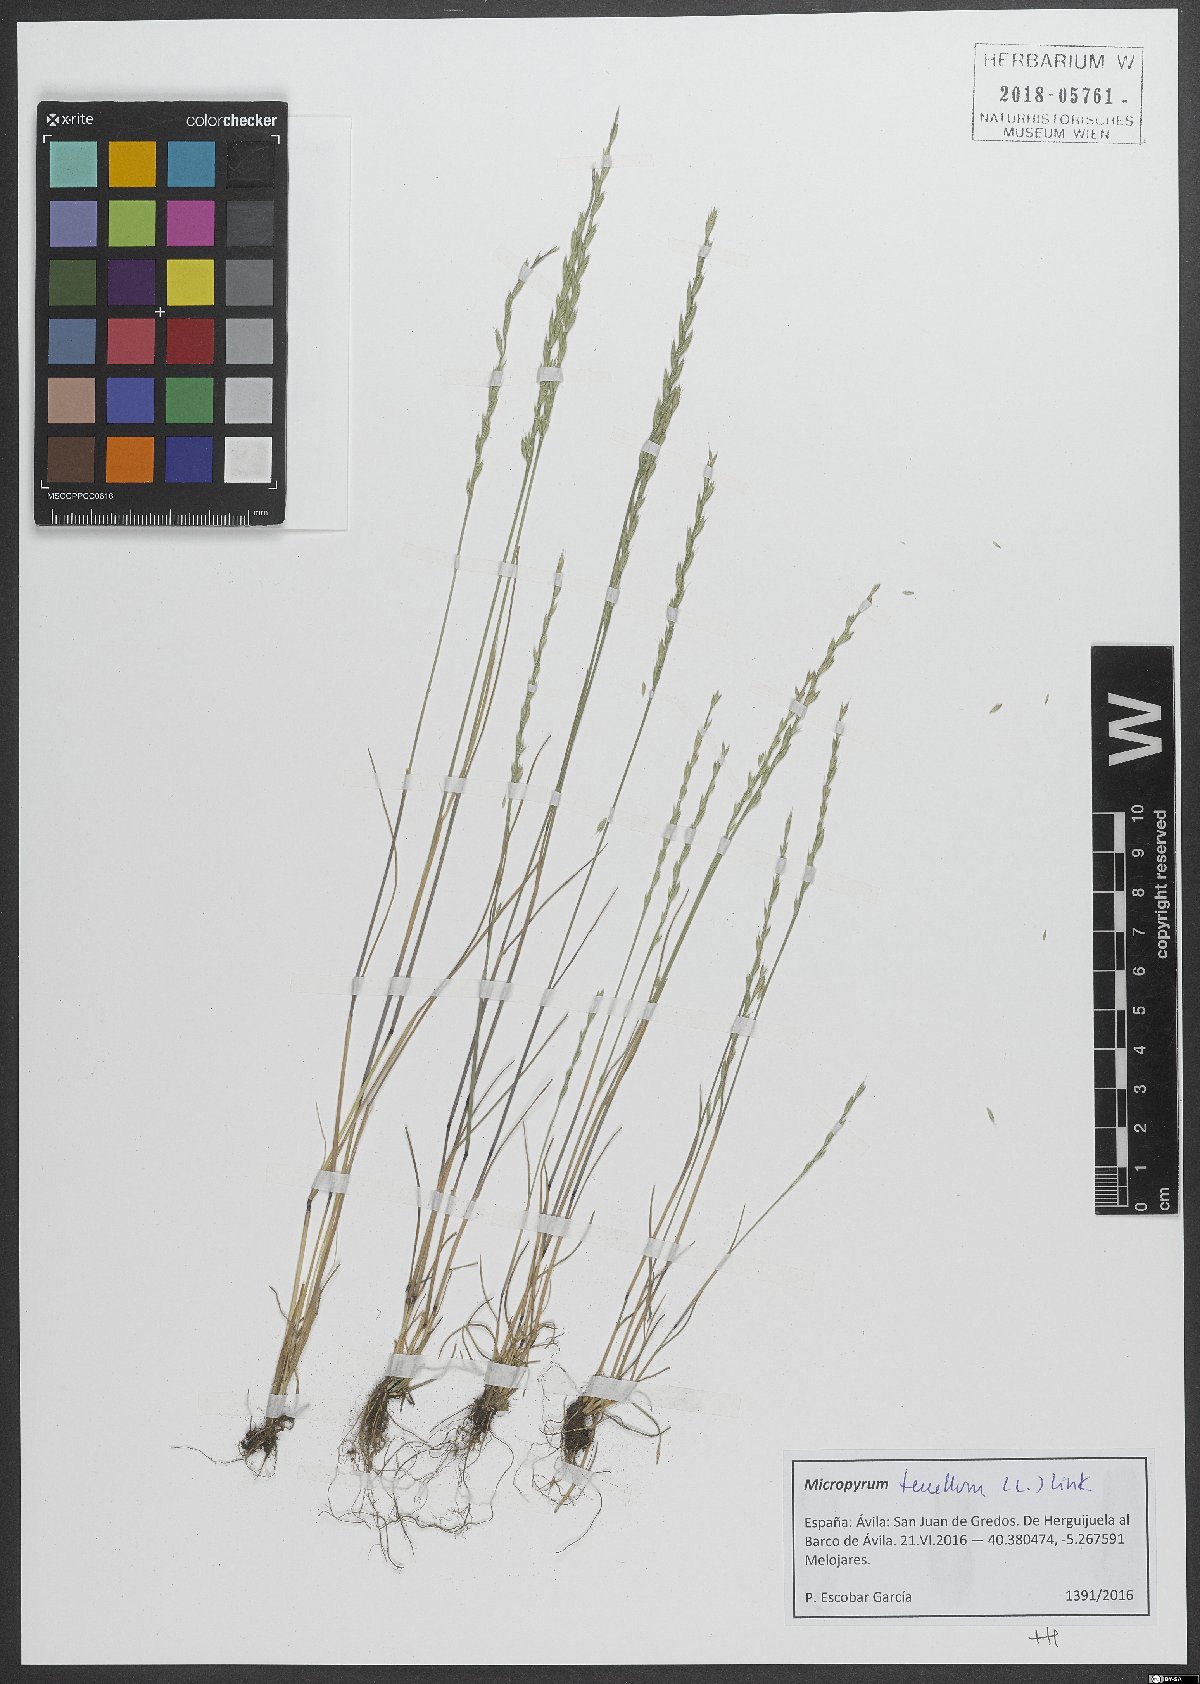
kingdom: Plantae
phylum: Tracheophyta
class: Liliopsida
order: Poales
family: Poaceae
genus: Festuca
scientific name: Festuca lachenalii
